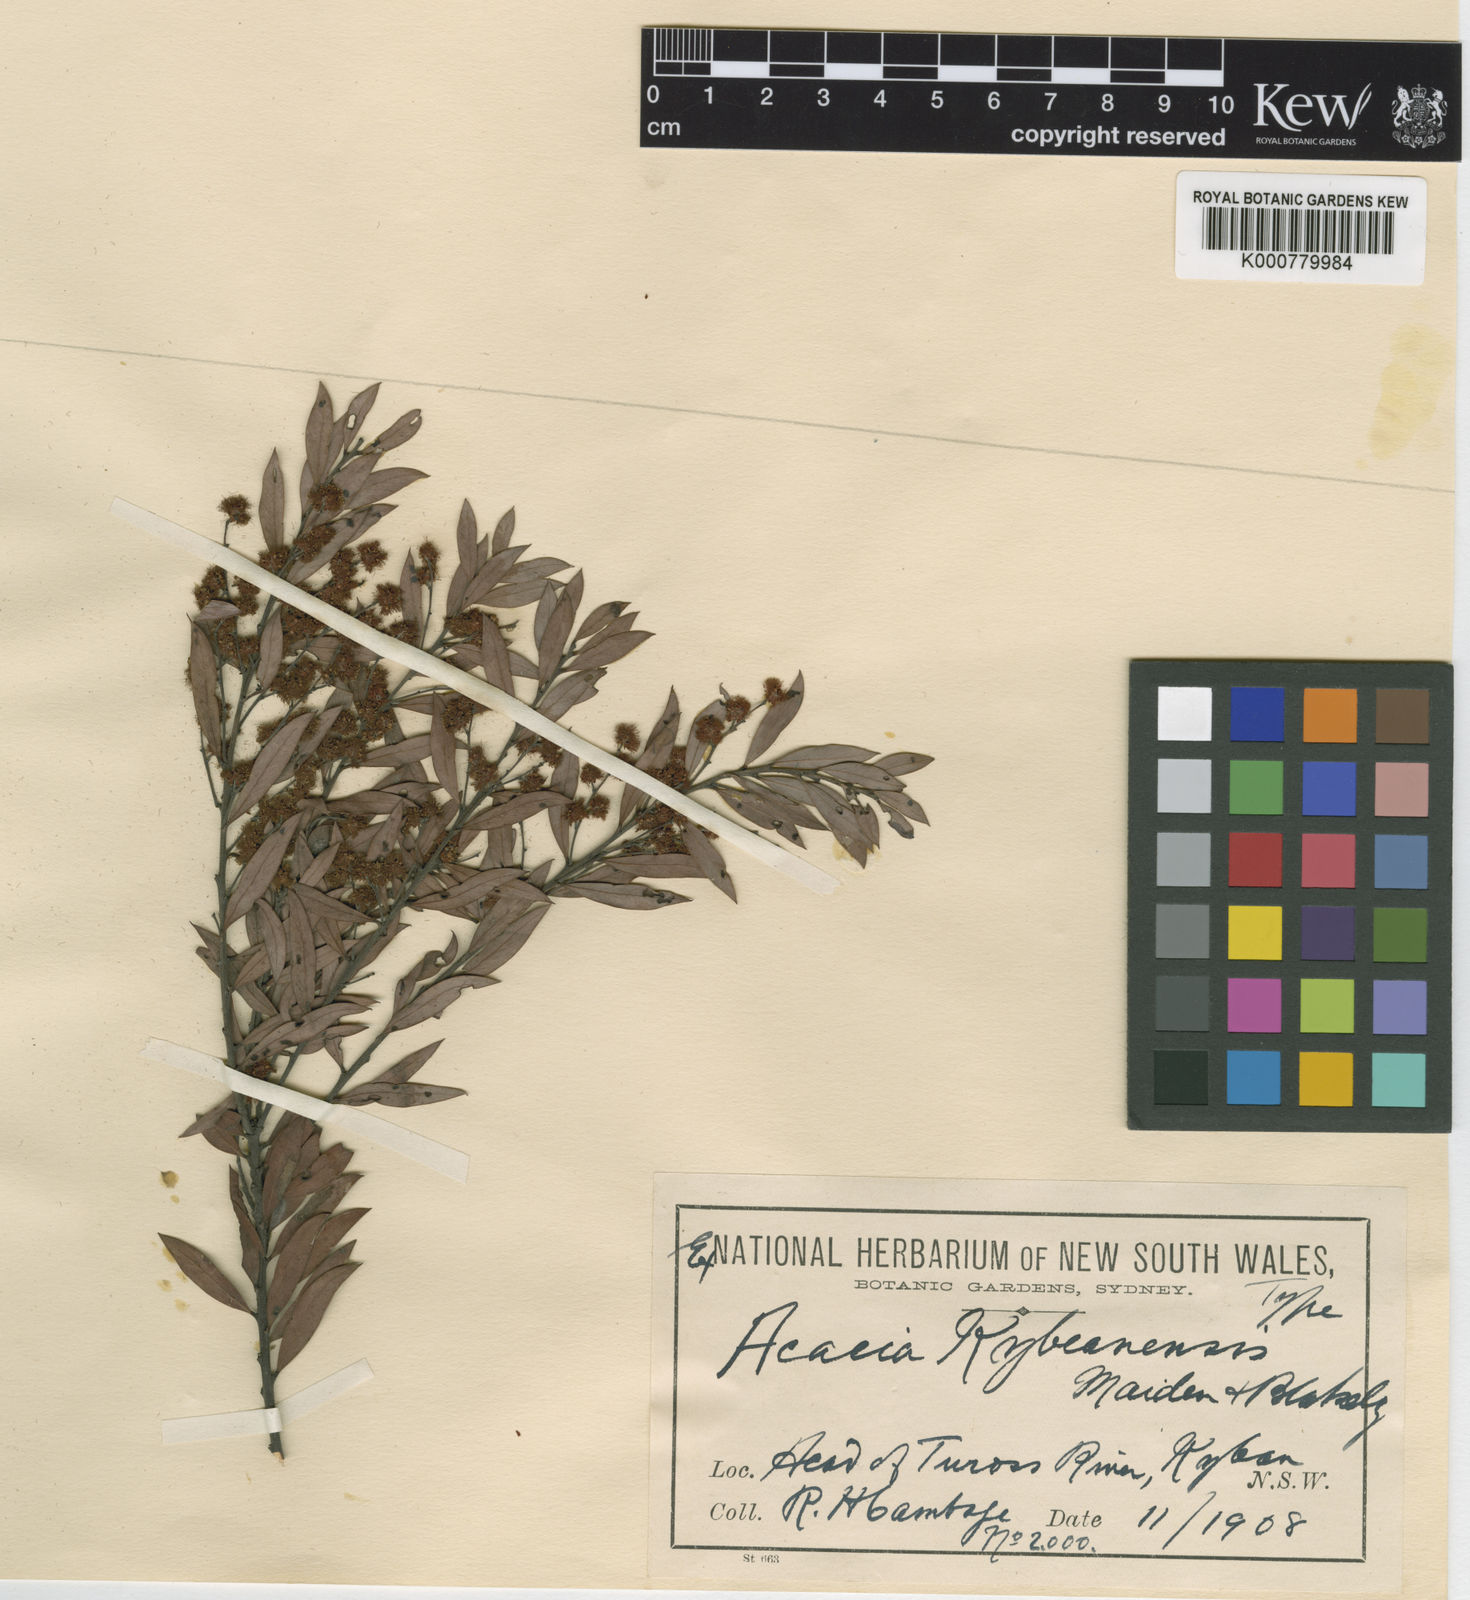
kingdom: Plantae
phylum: Tracheophyta
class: Magnoliopsida
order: Fabales
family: Fabaceae
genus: Acacia
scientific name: Acacia kybeanensis
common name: Kybean wattle
